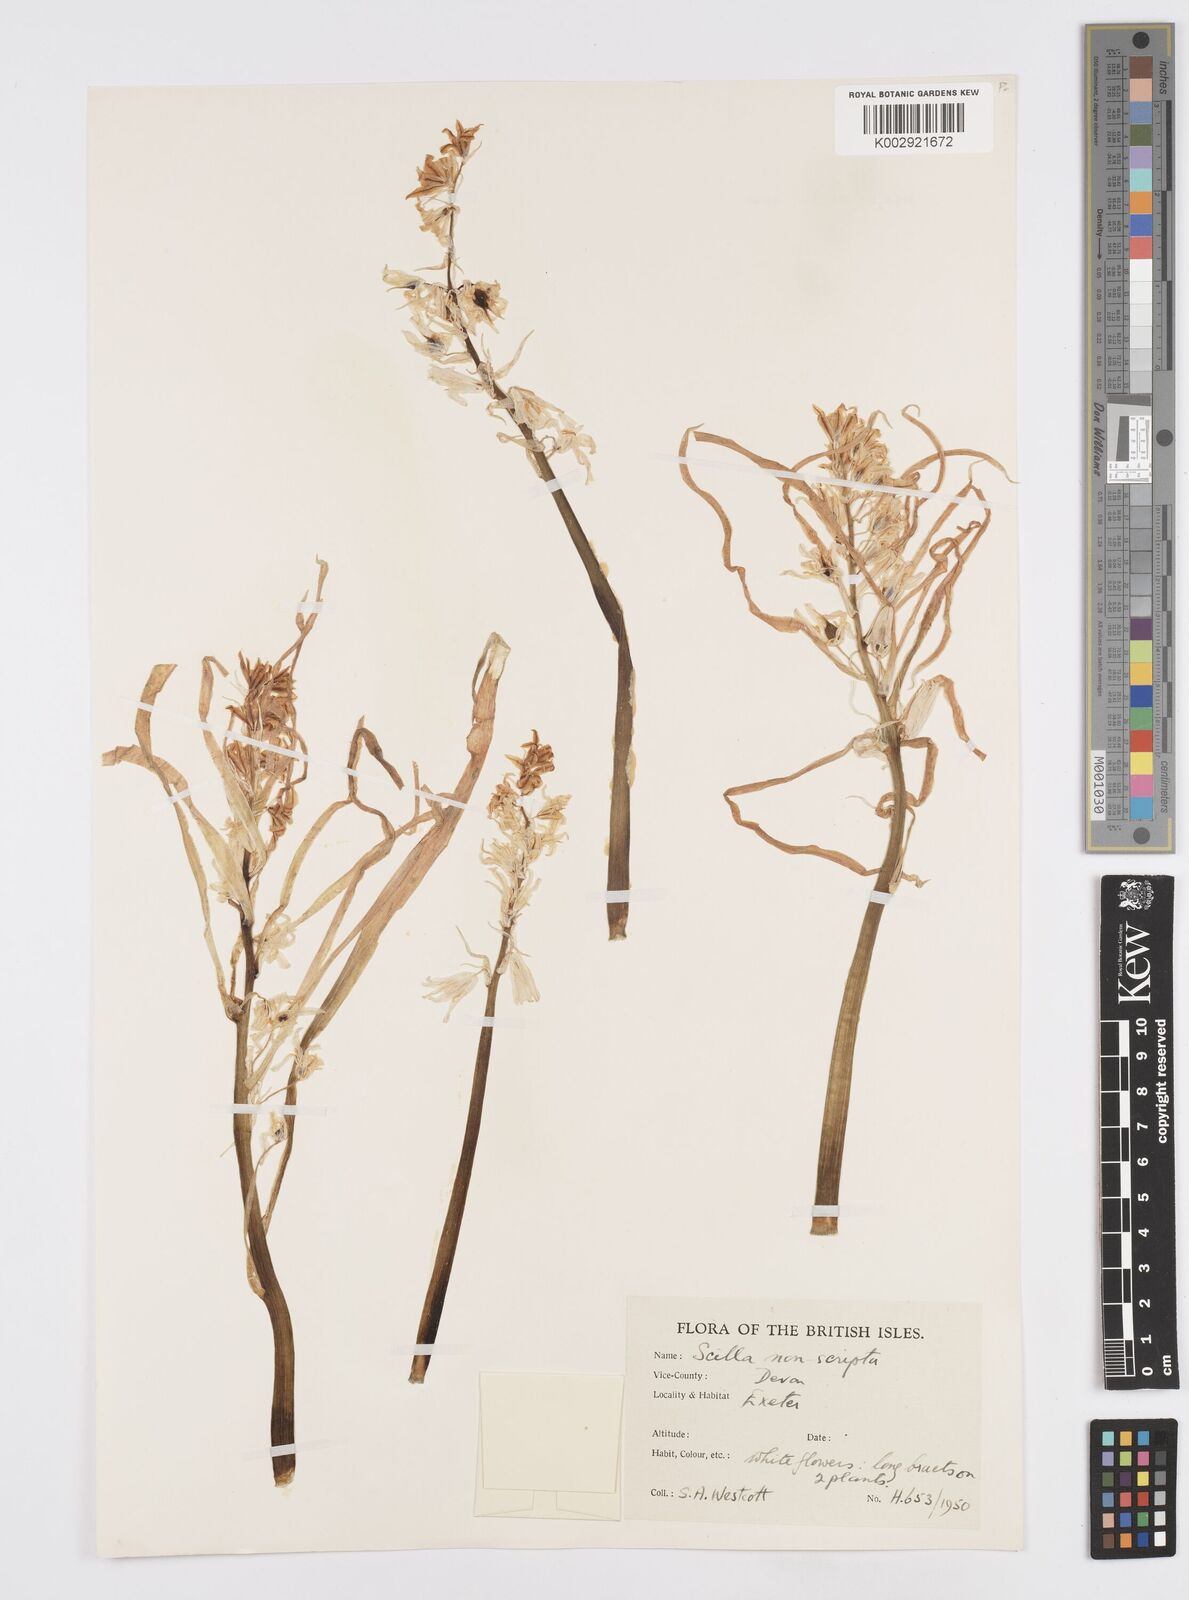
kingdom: Plantae
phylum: Tracheophyta
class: Liliopsida
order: Asparagales
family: Asparagaceae
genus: Hyacinthoides
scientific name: Hyacinthoides
